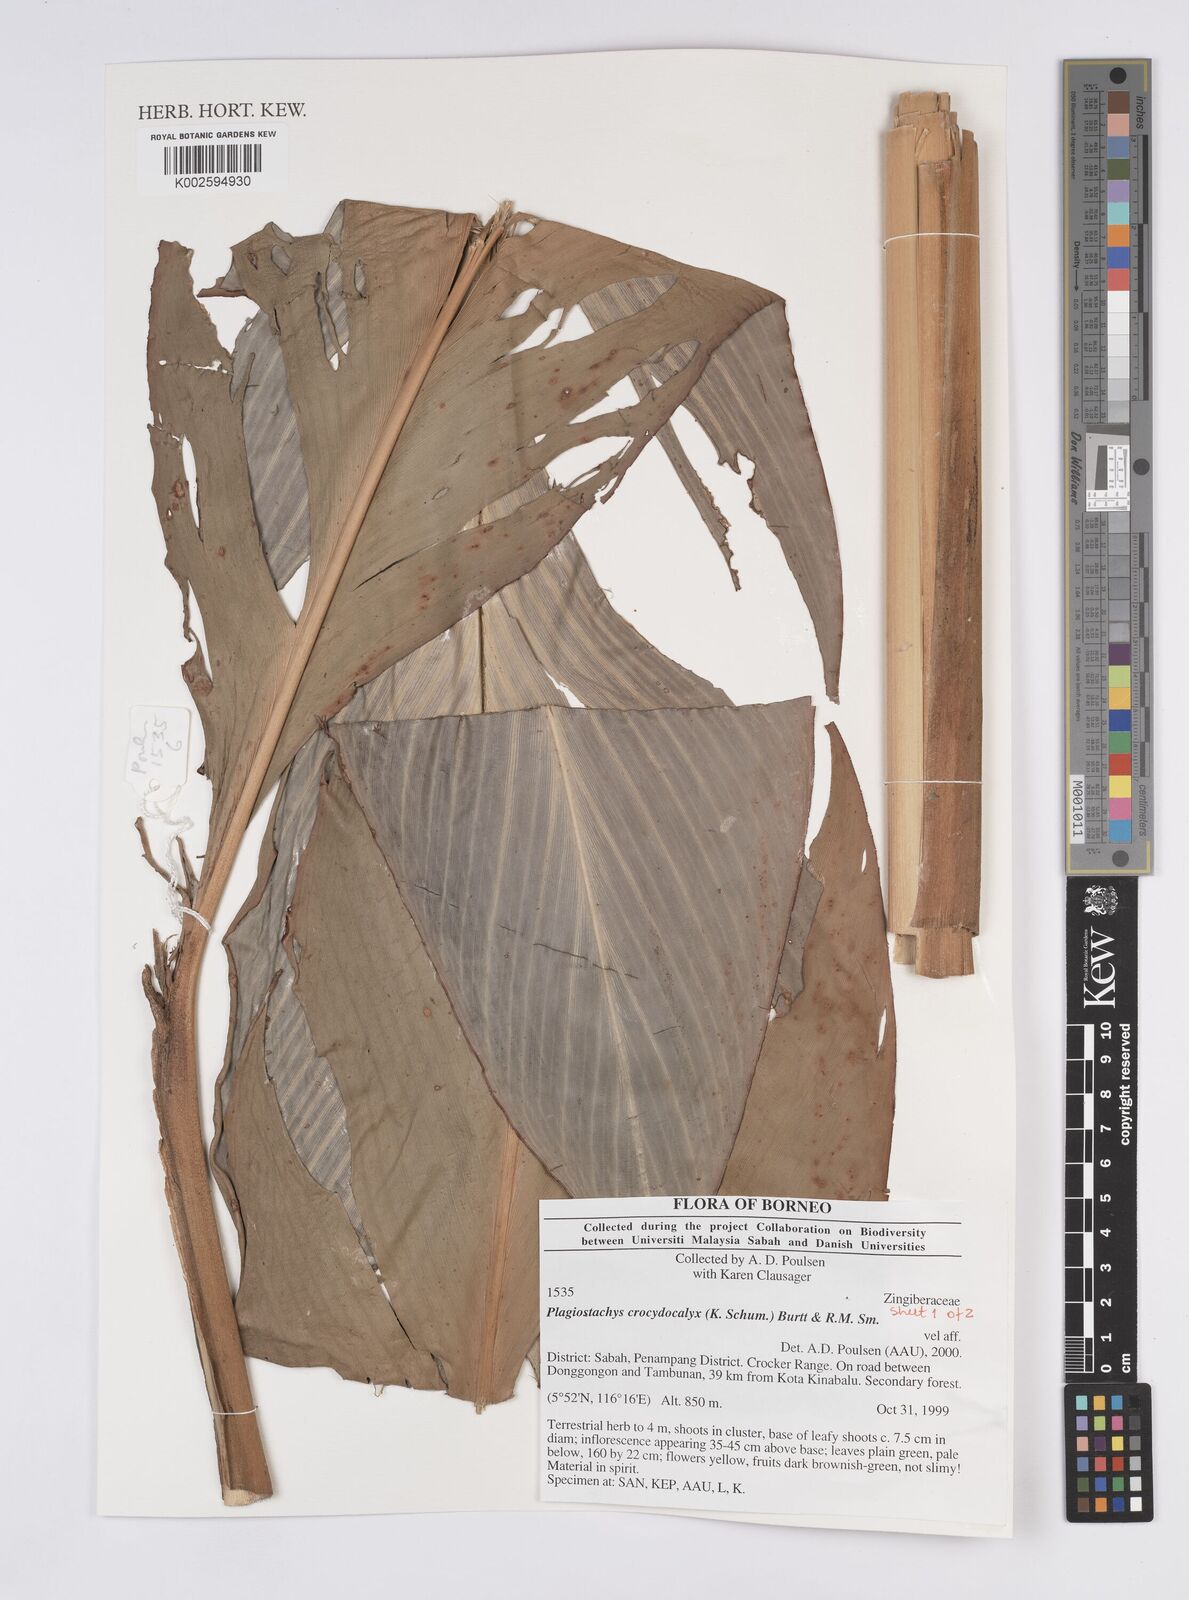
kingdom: Plantae
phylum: Tracheophyta
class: Liliopsida
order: Zingiberales
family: Zingiberaceae
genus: Plagiostachys
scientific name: Plagiostachys crocydocalyx
